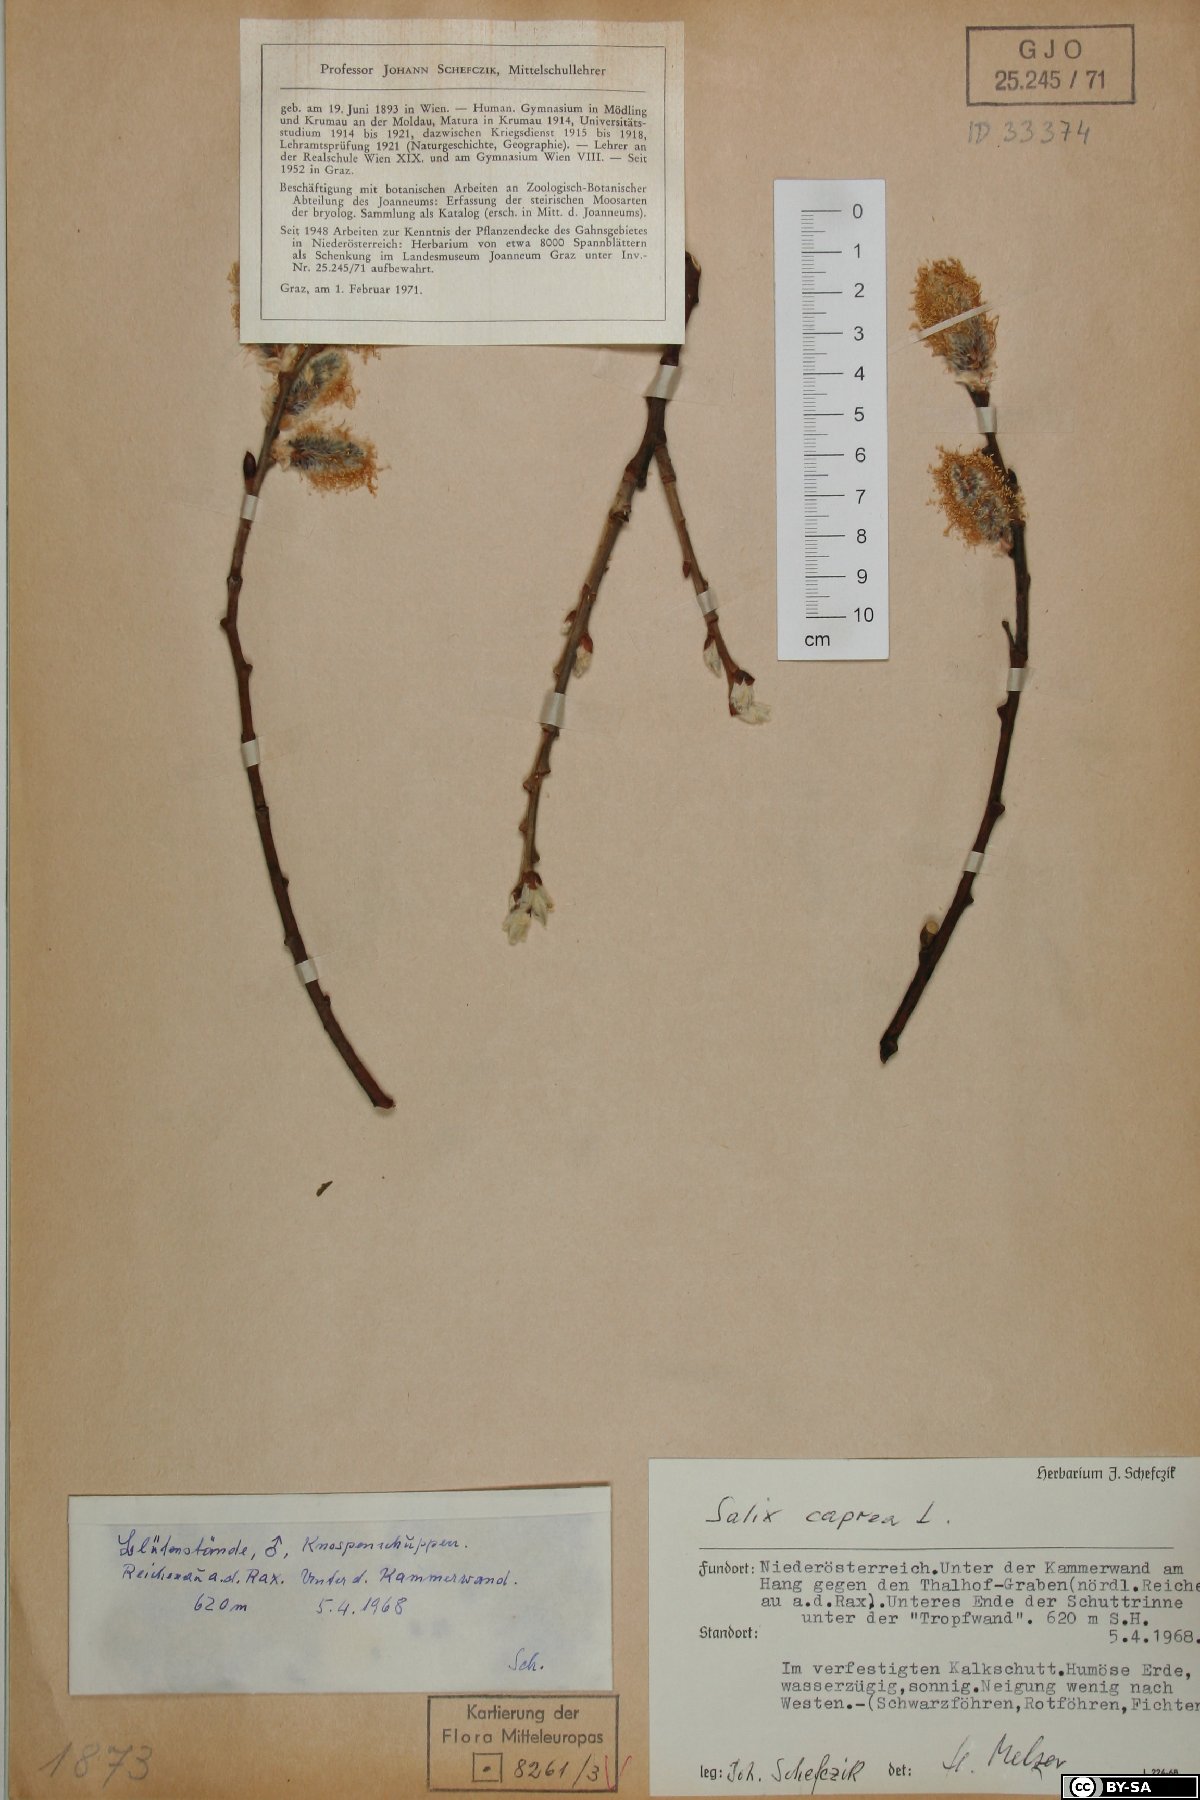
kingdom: Plantae
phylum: Tracheophyta
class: Magnoliopsida
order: Malpighiales
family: Salicaceae
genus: Salix
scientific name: Salix caprea
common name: Goat willow
